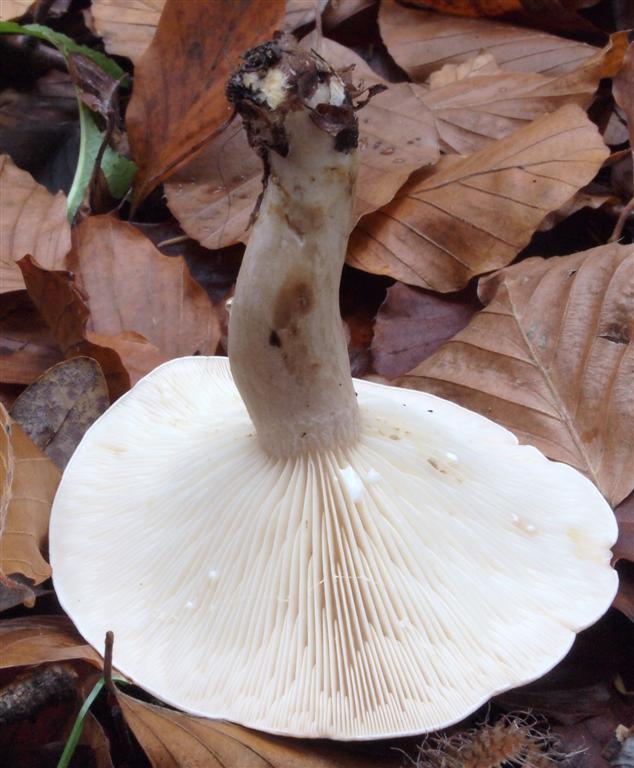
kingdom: Fungi
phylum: Basidiomycota
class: Agaricomycetes
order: Russulales
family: Russulaceae
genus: Lactarius
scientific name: Lactarius fluens
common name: lysrandet mælkehat
